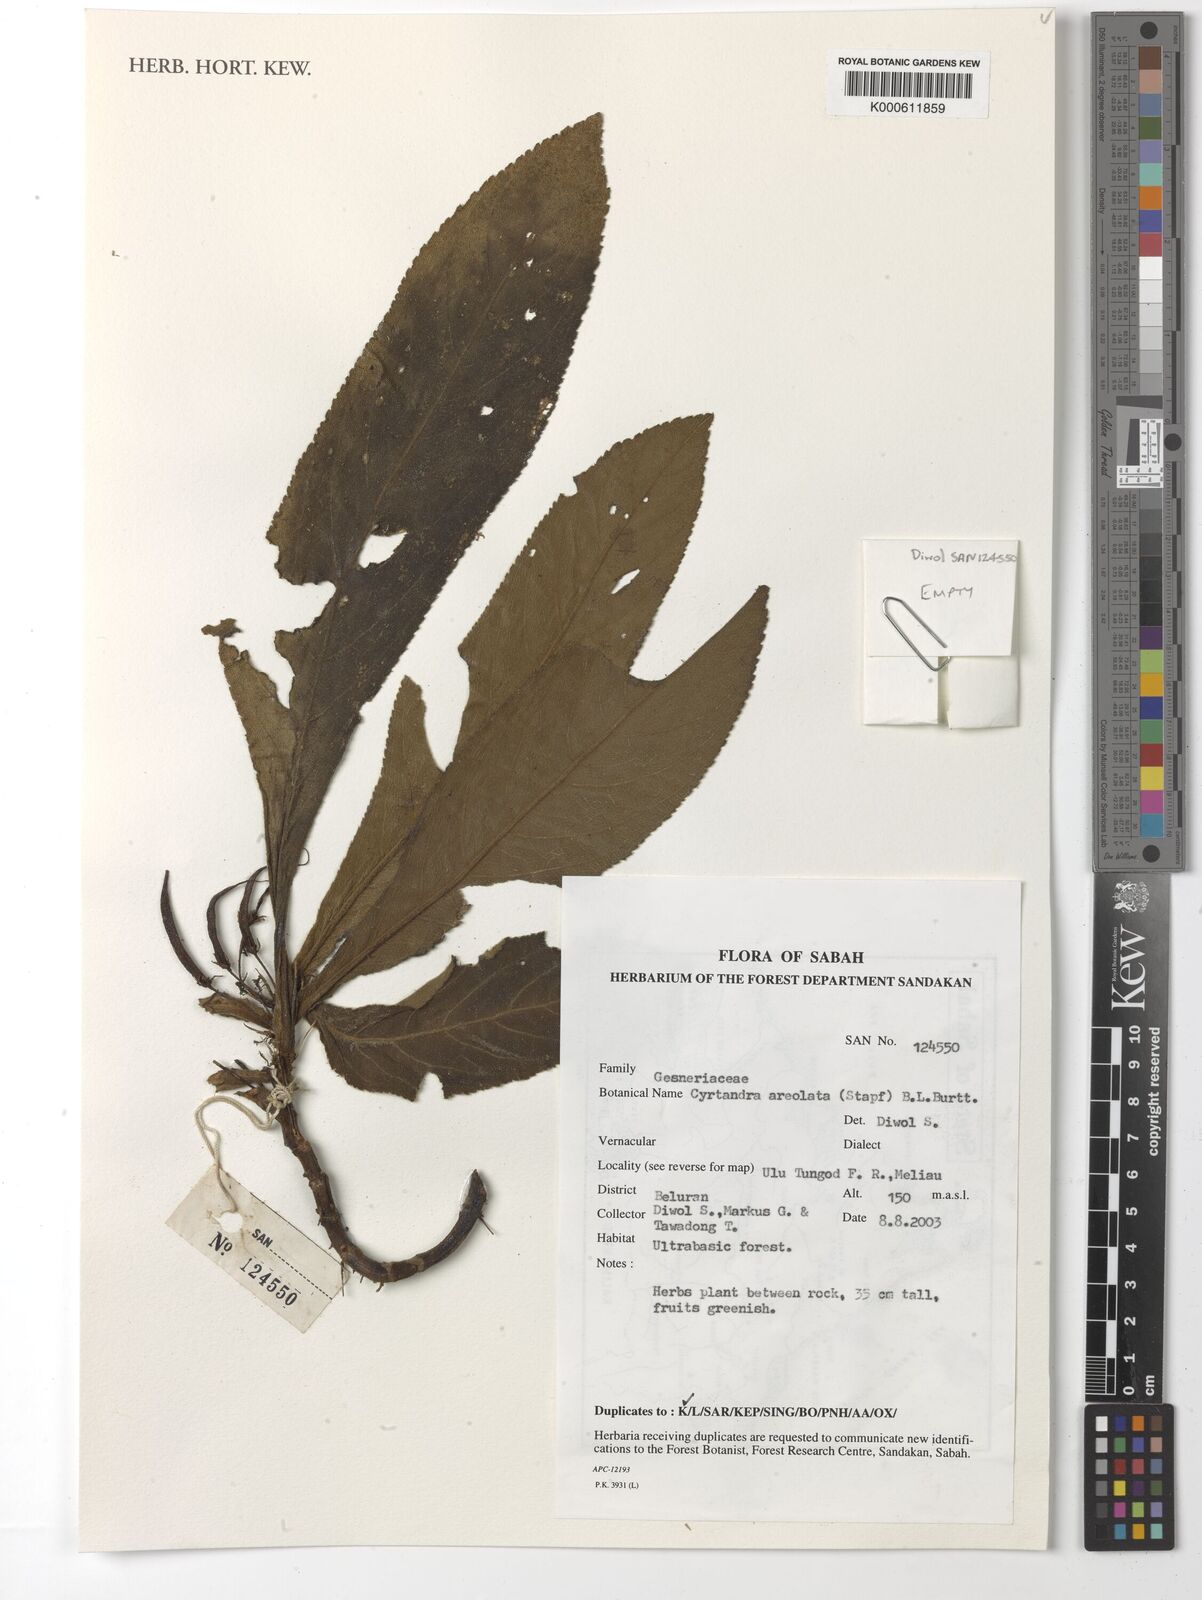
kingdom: Plantae
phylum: Tracheophyta
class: Magnoliopsida
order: Lamiales
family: Gesneriaceae
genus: Cyrtandra
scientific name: Cyrtandra areolata
